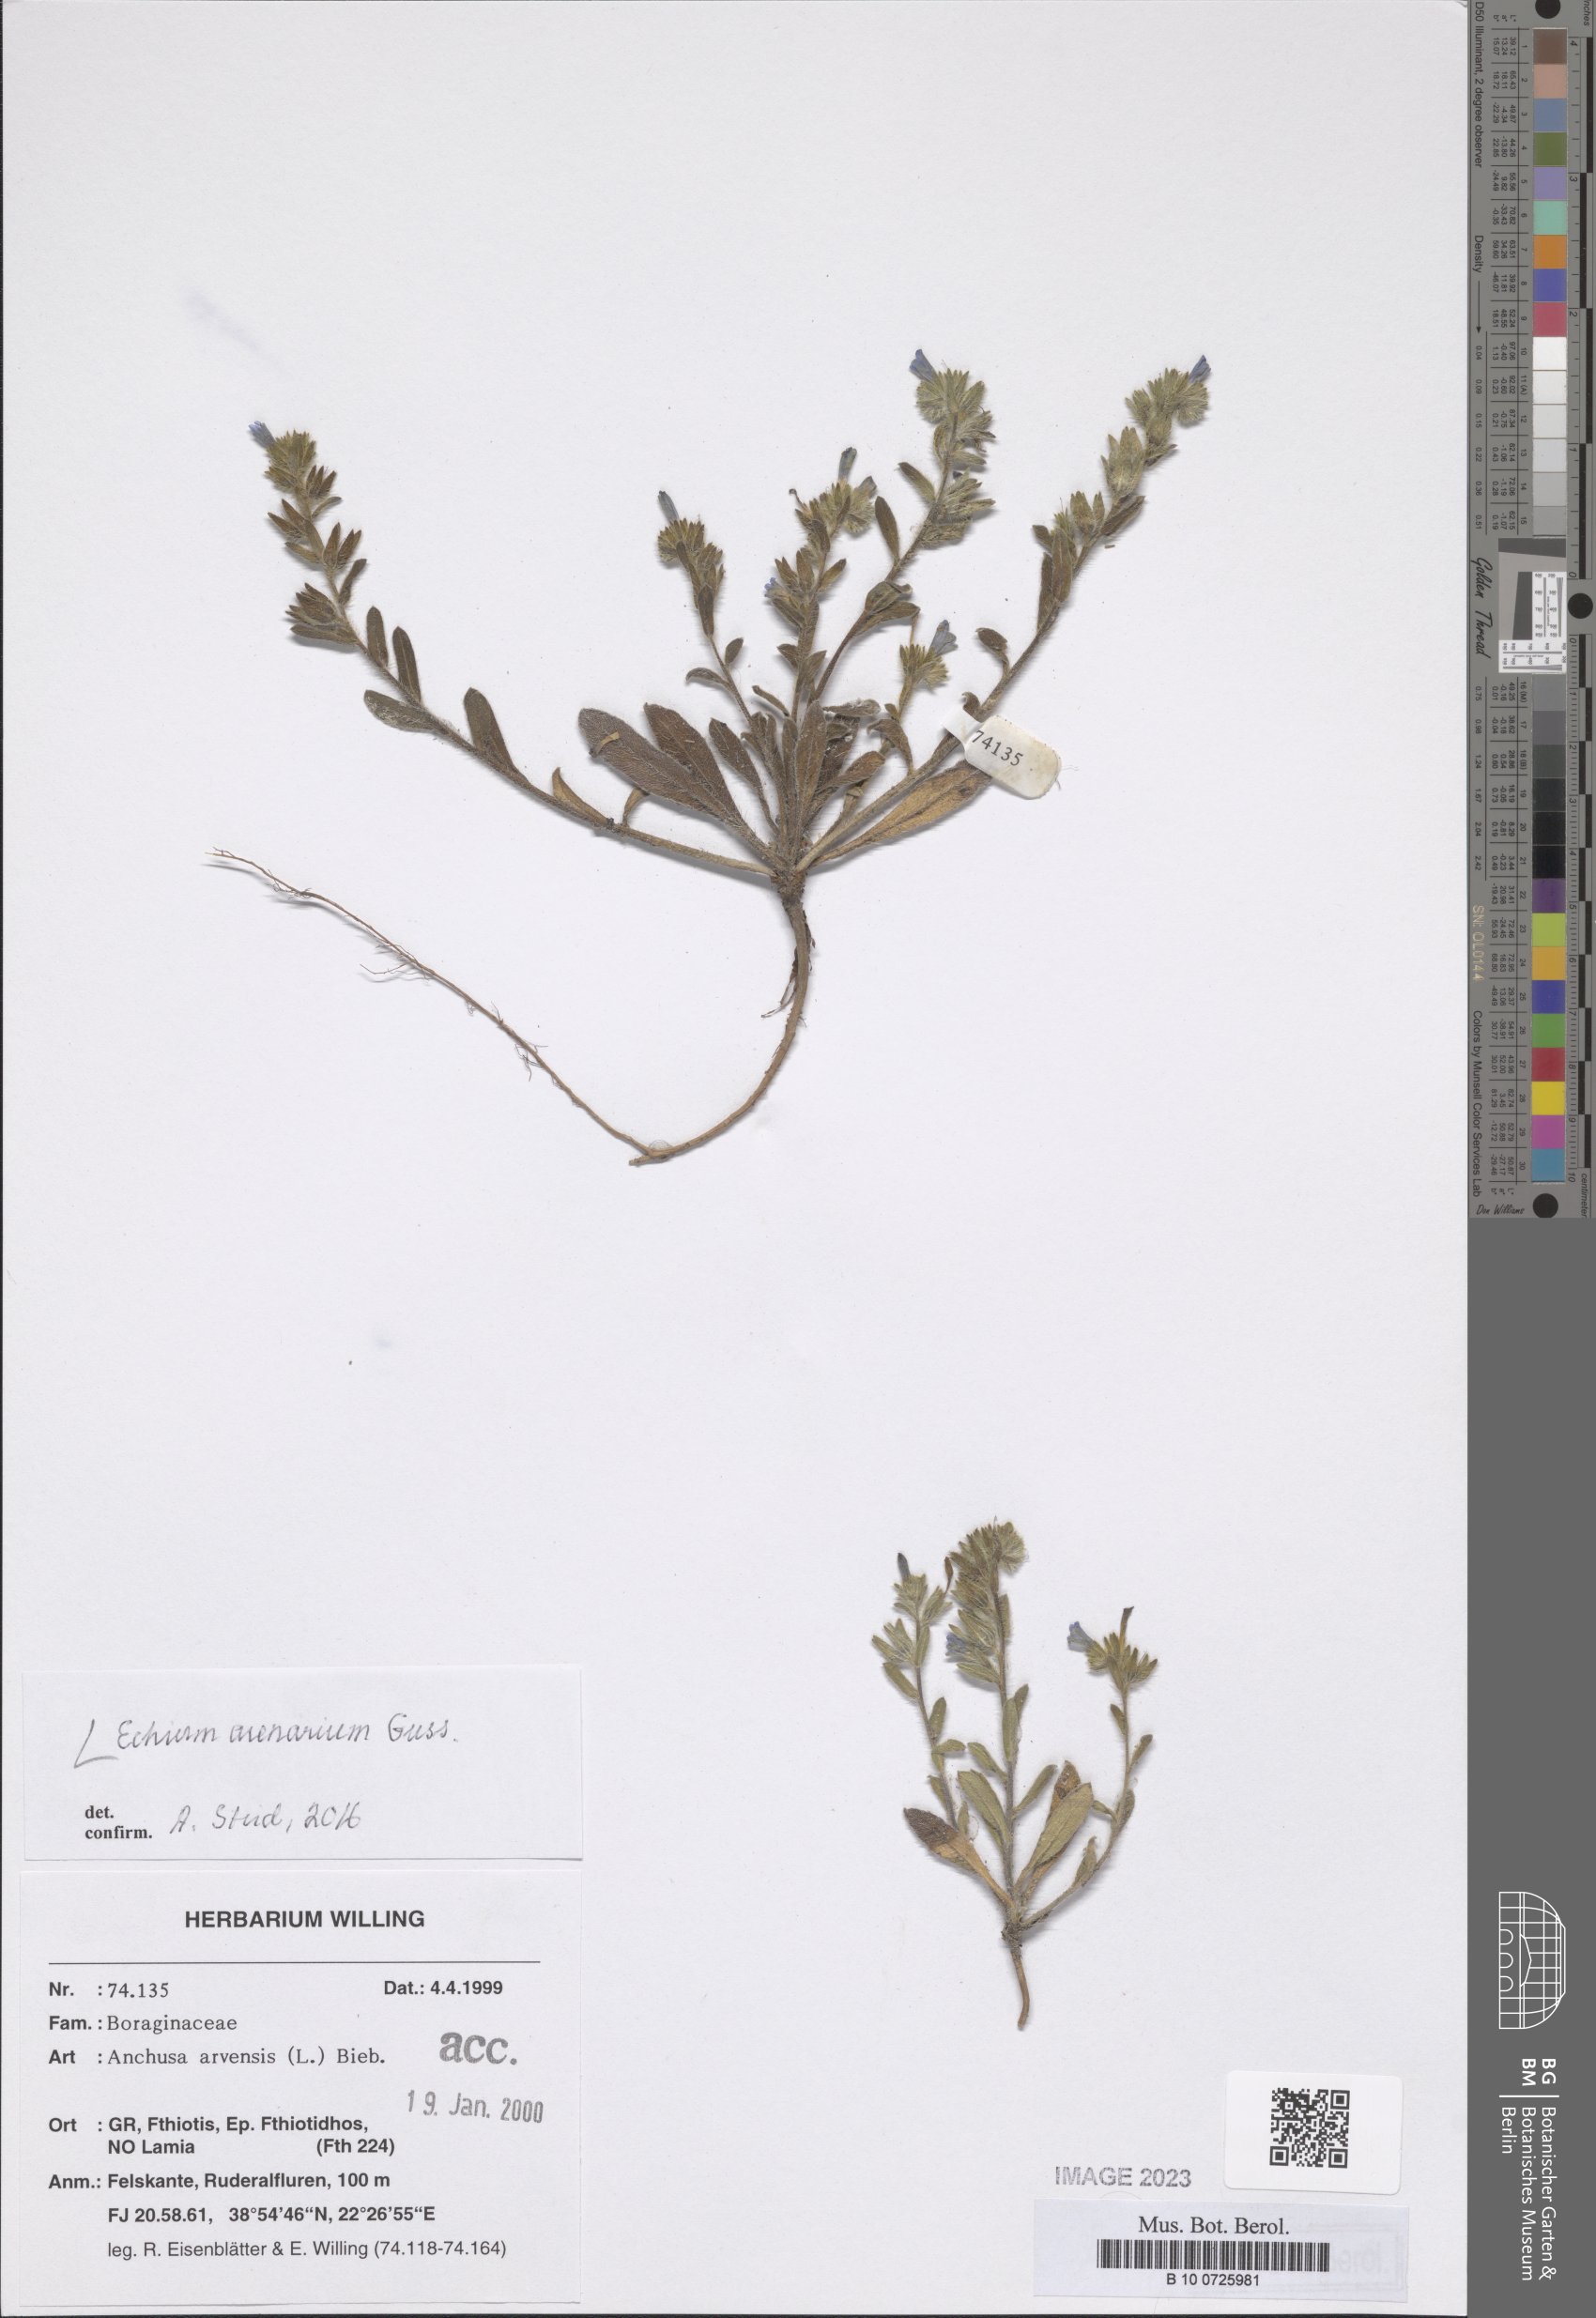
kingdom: Plantae
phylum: Tracheophyta
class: Magnoliopsida
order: Boraginales
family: Boraginaceae
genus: Echium
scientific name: Echium arenarium
